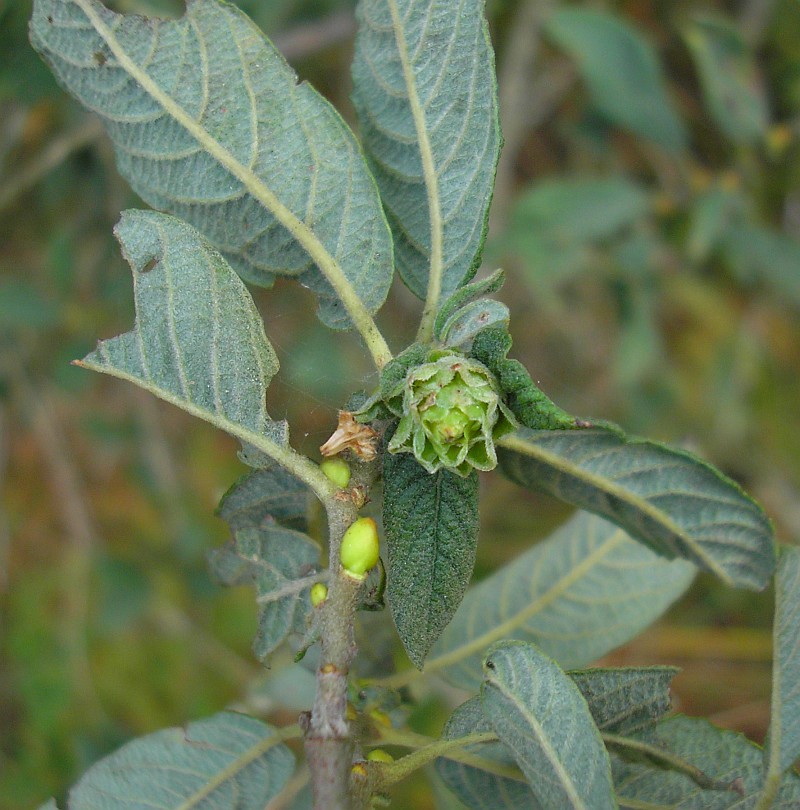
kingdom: Animalia
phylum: Arthropoda
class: Insecta
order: Diptera
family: Cecidomyiidae
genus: Rabdophaga
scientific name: Rabdophaga rosaria
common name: Willow rose gall midge
